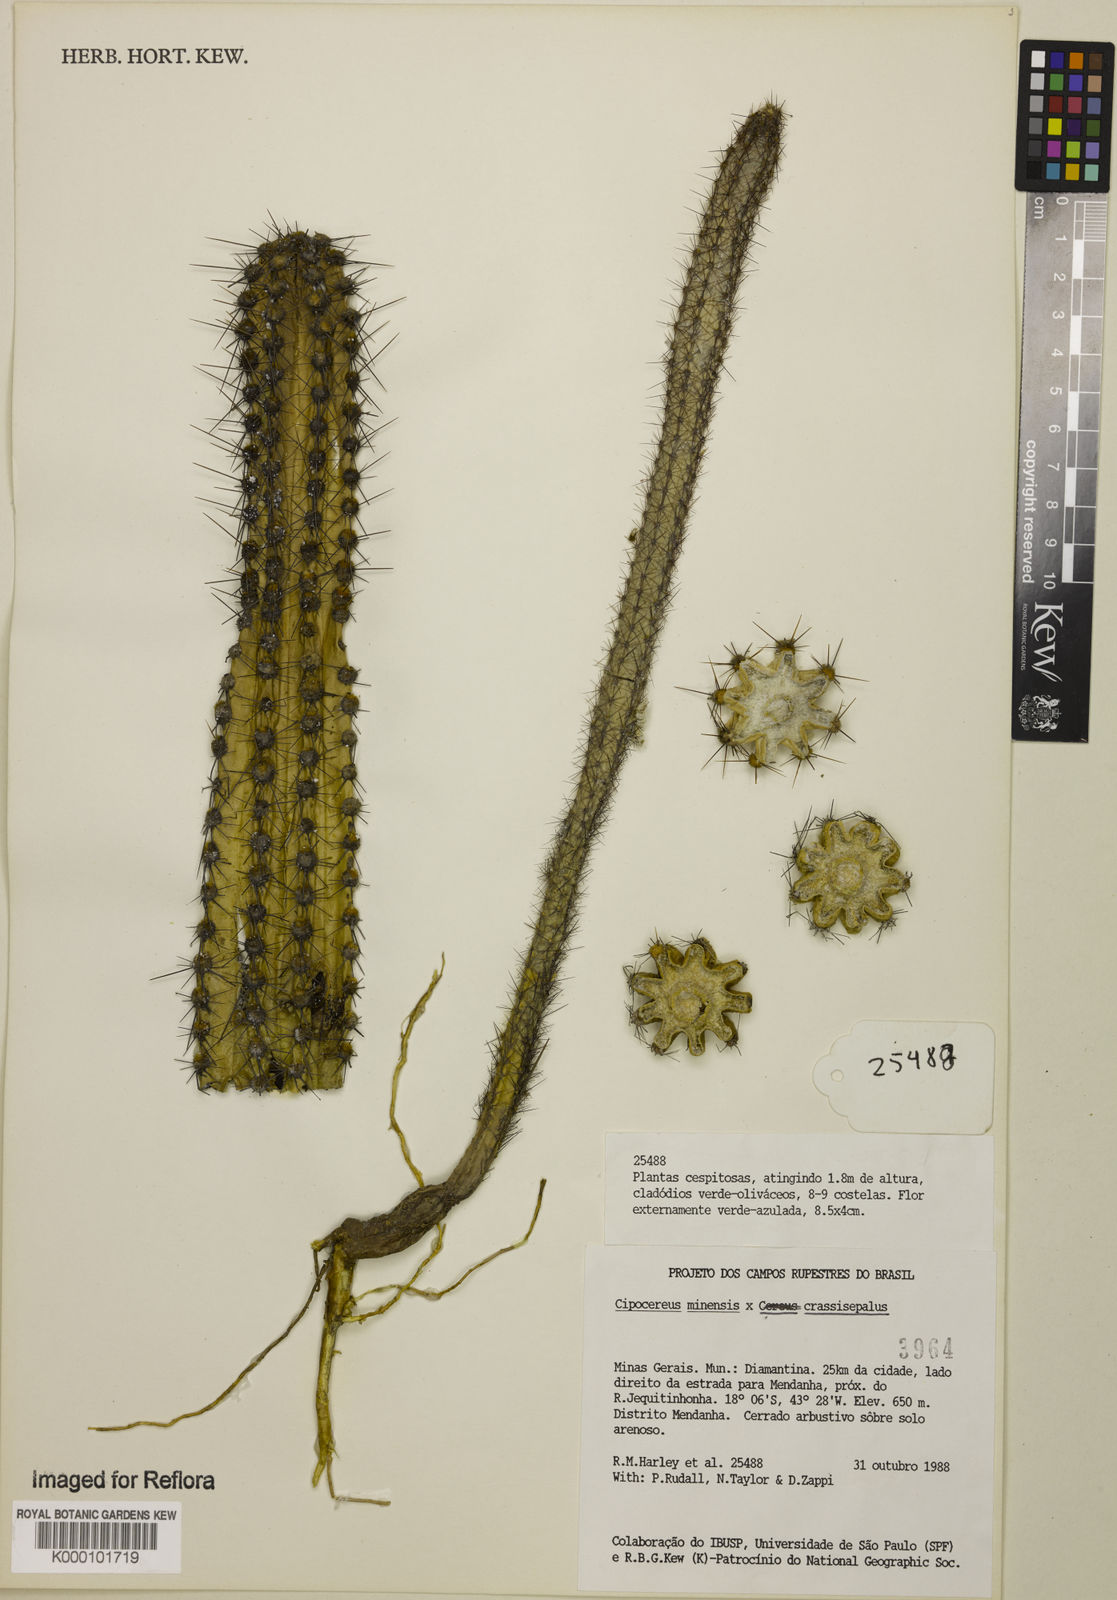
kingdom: Plantae
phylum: Tracheophyta
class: Magnoliopsida
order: Caryophyllales
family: Cactaceae
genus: Cipocereus
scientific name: Cipocereus crassisepalus
